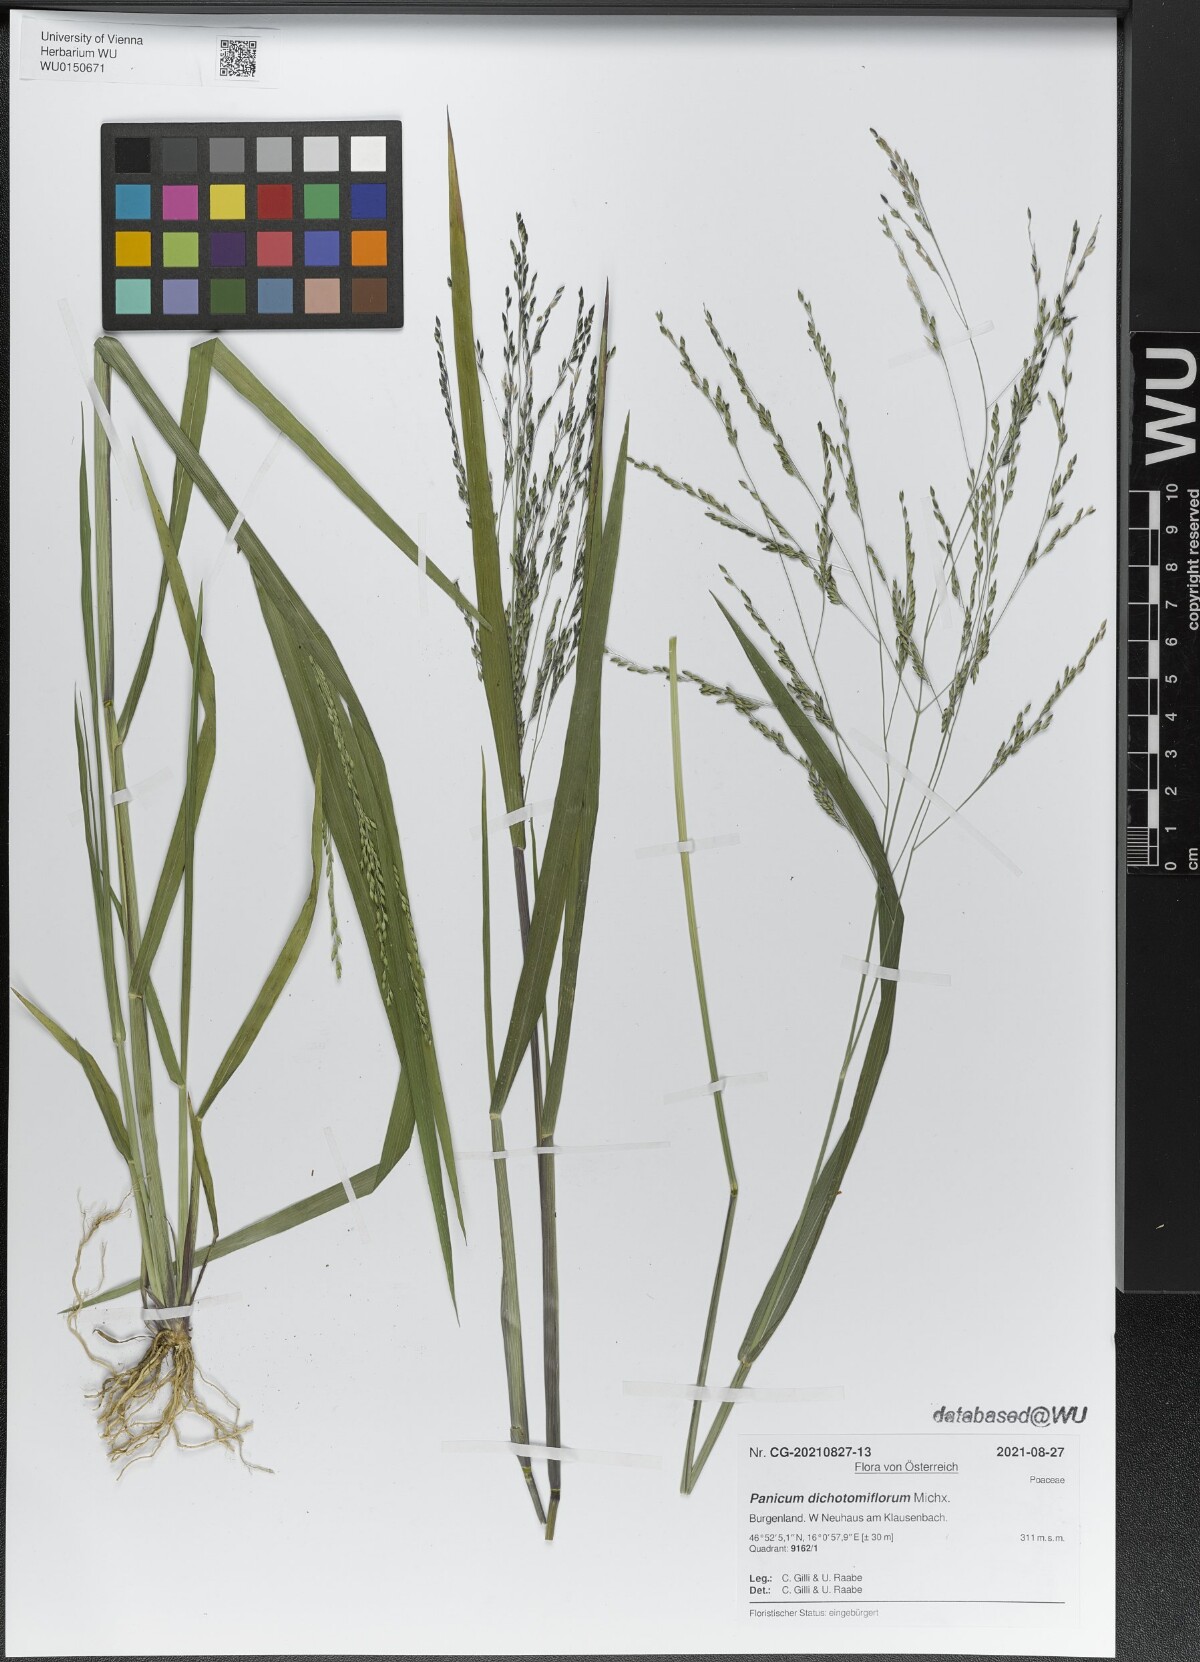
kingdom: Plantae
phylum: Tracheophyta
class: Liliopsida
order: Poales
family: Poaceae
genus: Panicum
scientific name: Panicum dichotomiflorum
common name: Autumn millet
